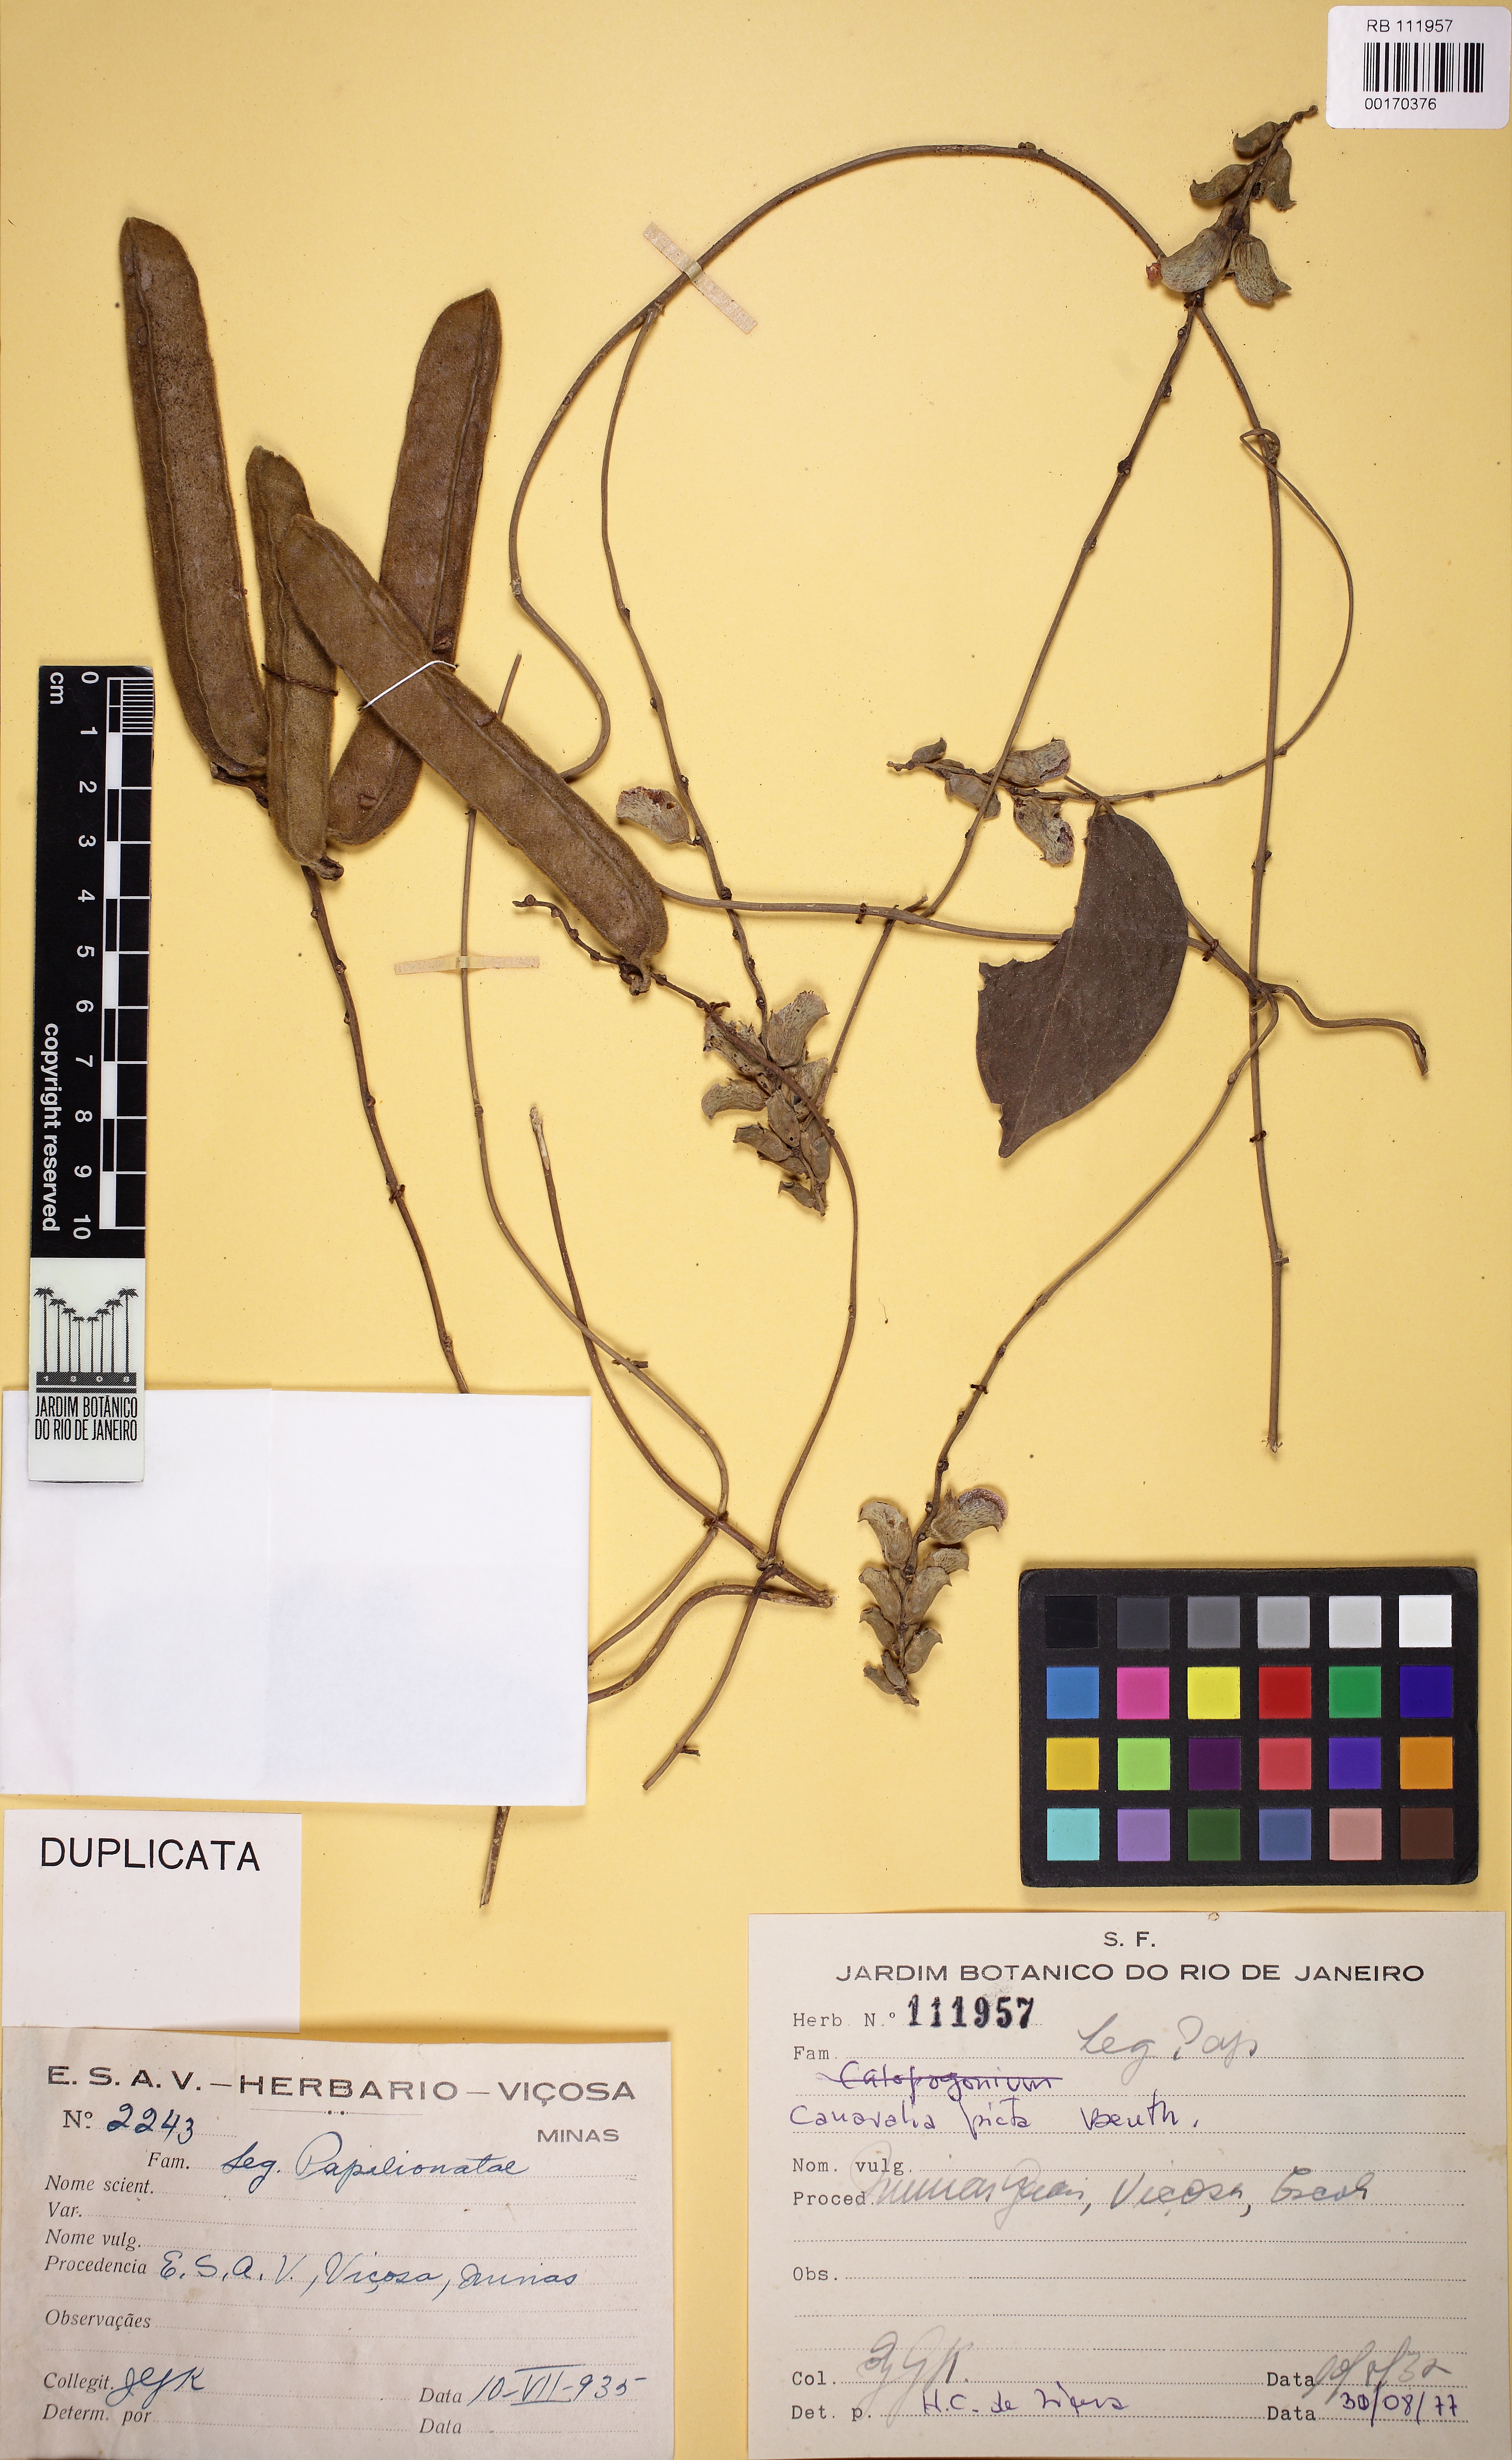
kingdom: Plantae
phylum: Tracheophyta
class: Magnoliopsida
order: Fabales
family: Fabaceae
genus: Canavalia
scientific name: Canavalia picta
